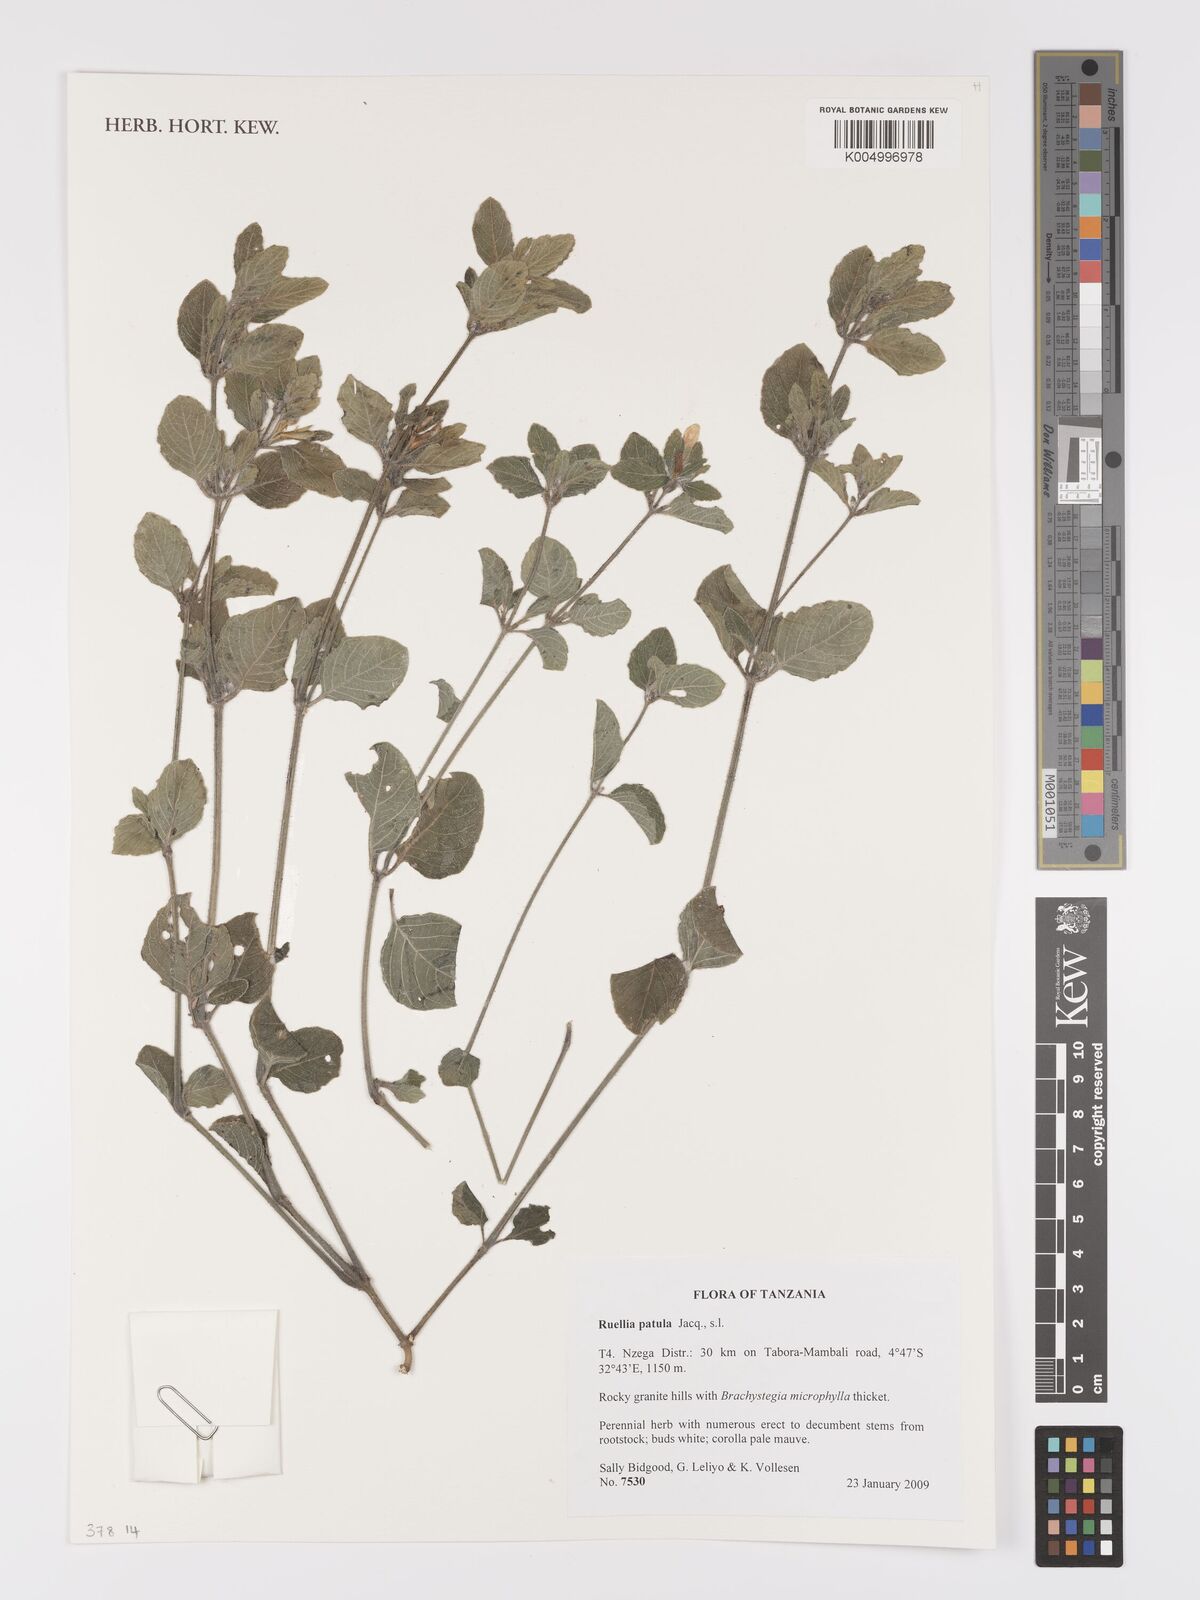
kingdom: Plantae
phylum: Tracheophyta
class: Magnoliopsida
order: Lamiales
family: Acanthaceae
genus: Ruellia
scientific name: Ruellia patula
